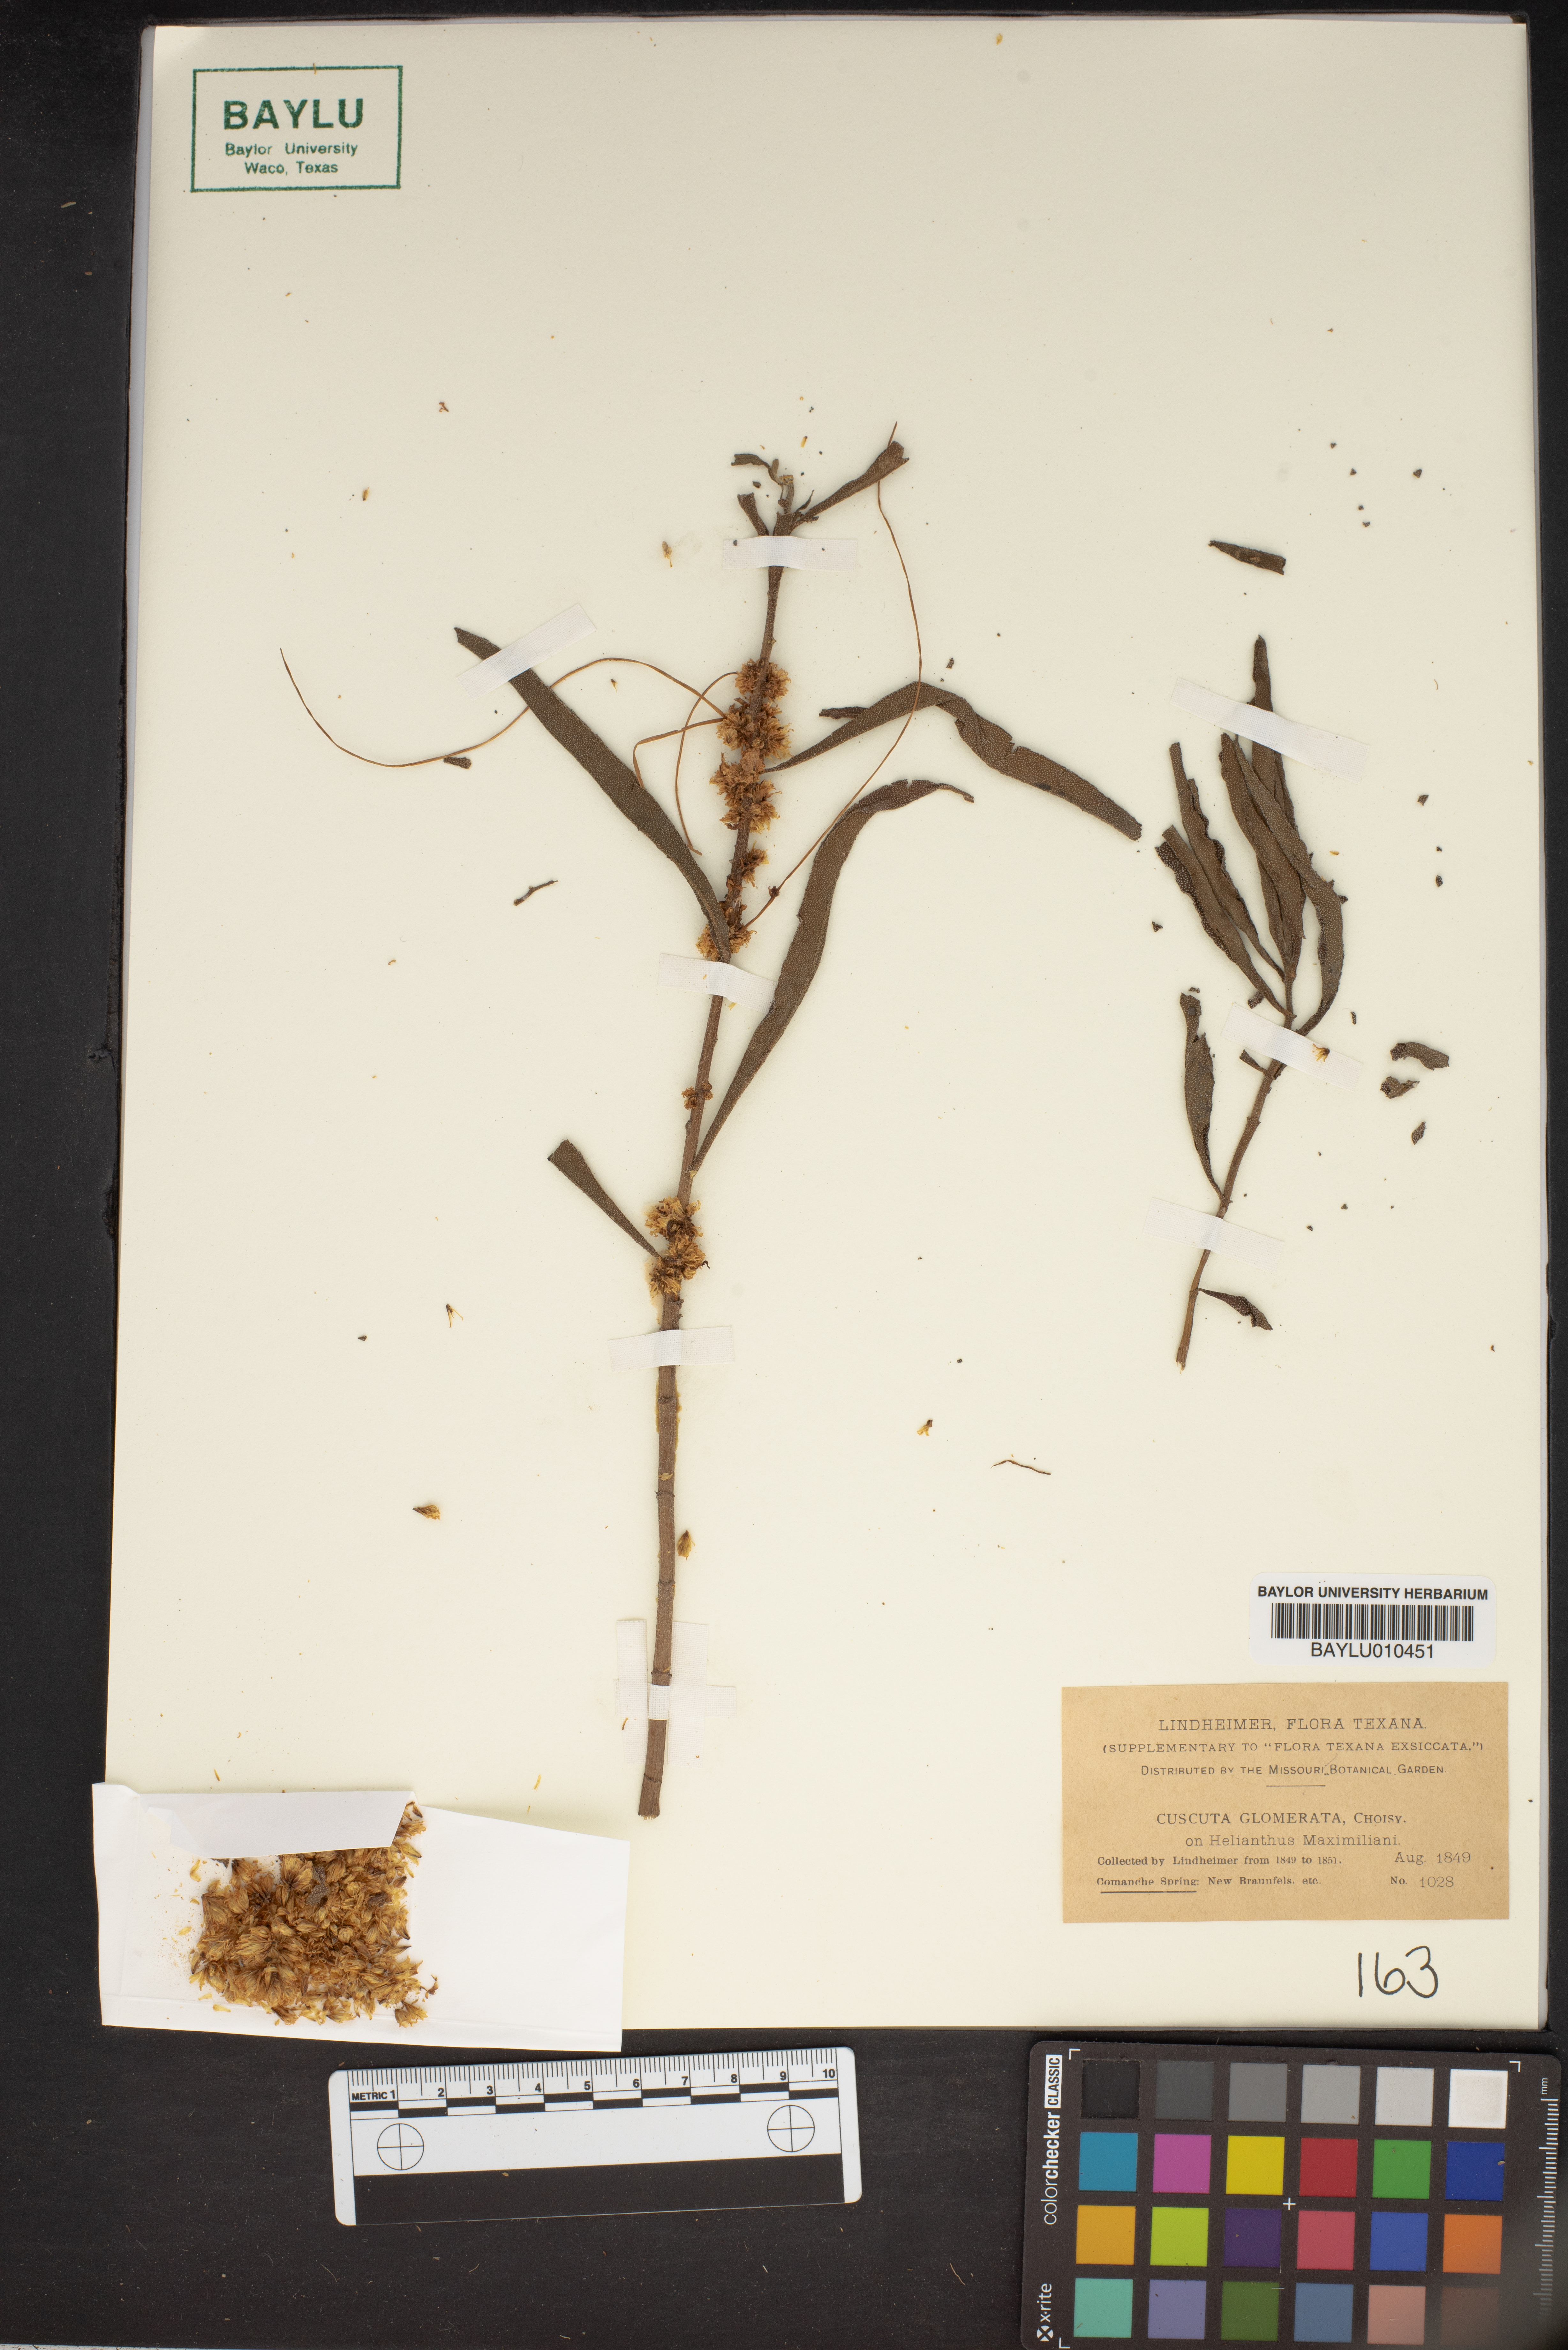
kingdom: Plantae
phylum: Tracheophyta
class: Magnoliopsida
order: Solanales
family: Convolvulaceae
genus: Cuscuta
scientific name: Cuscuta glomerata
